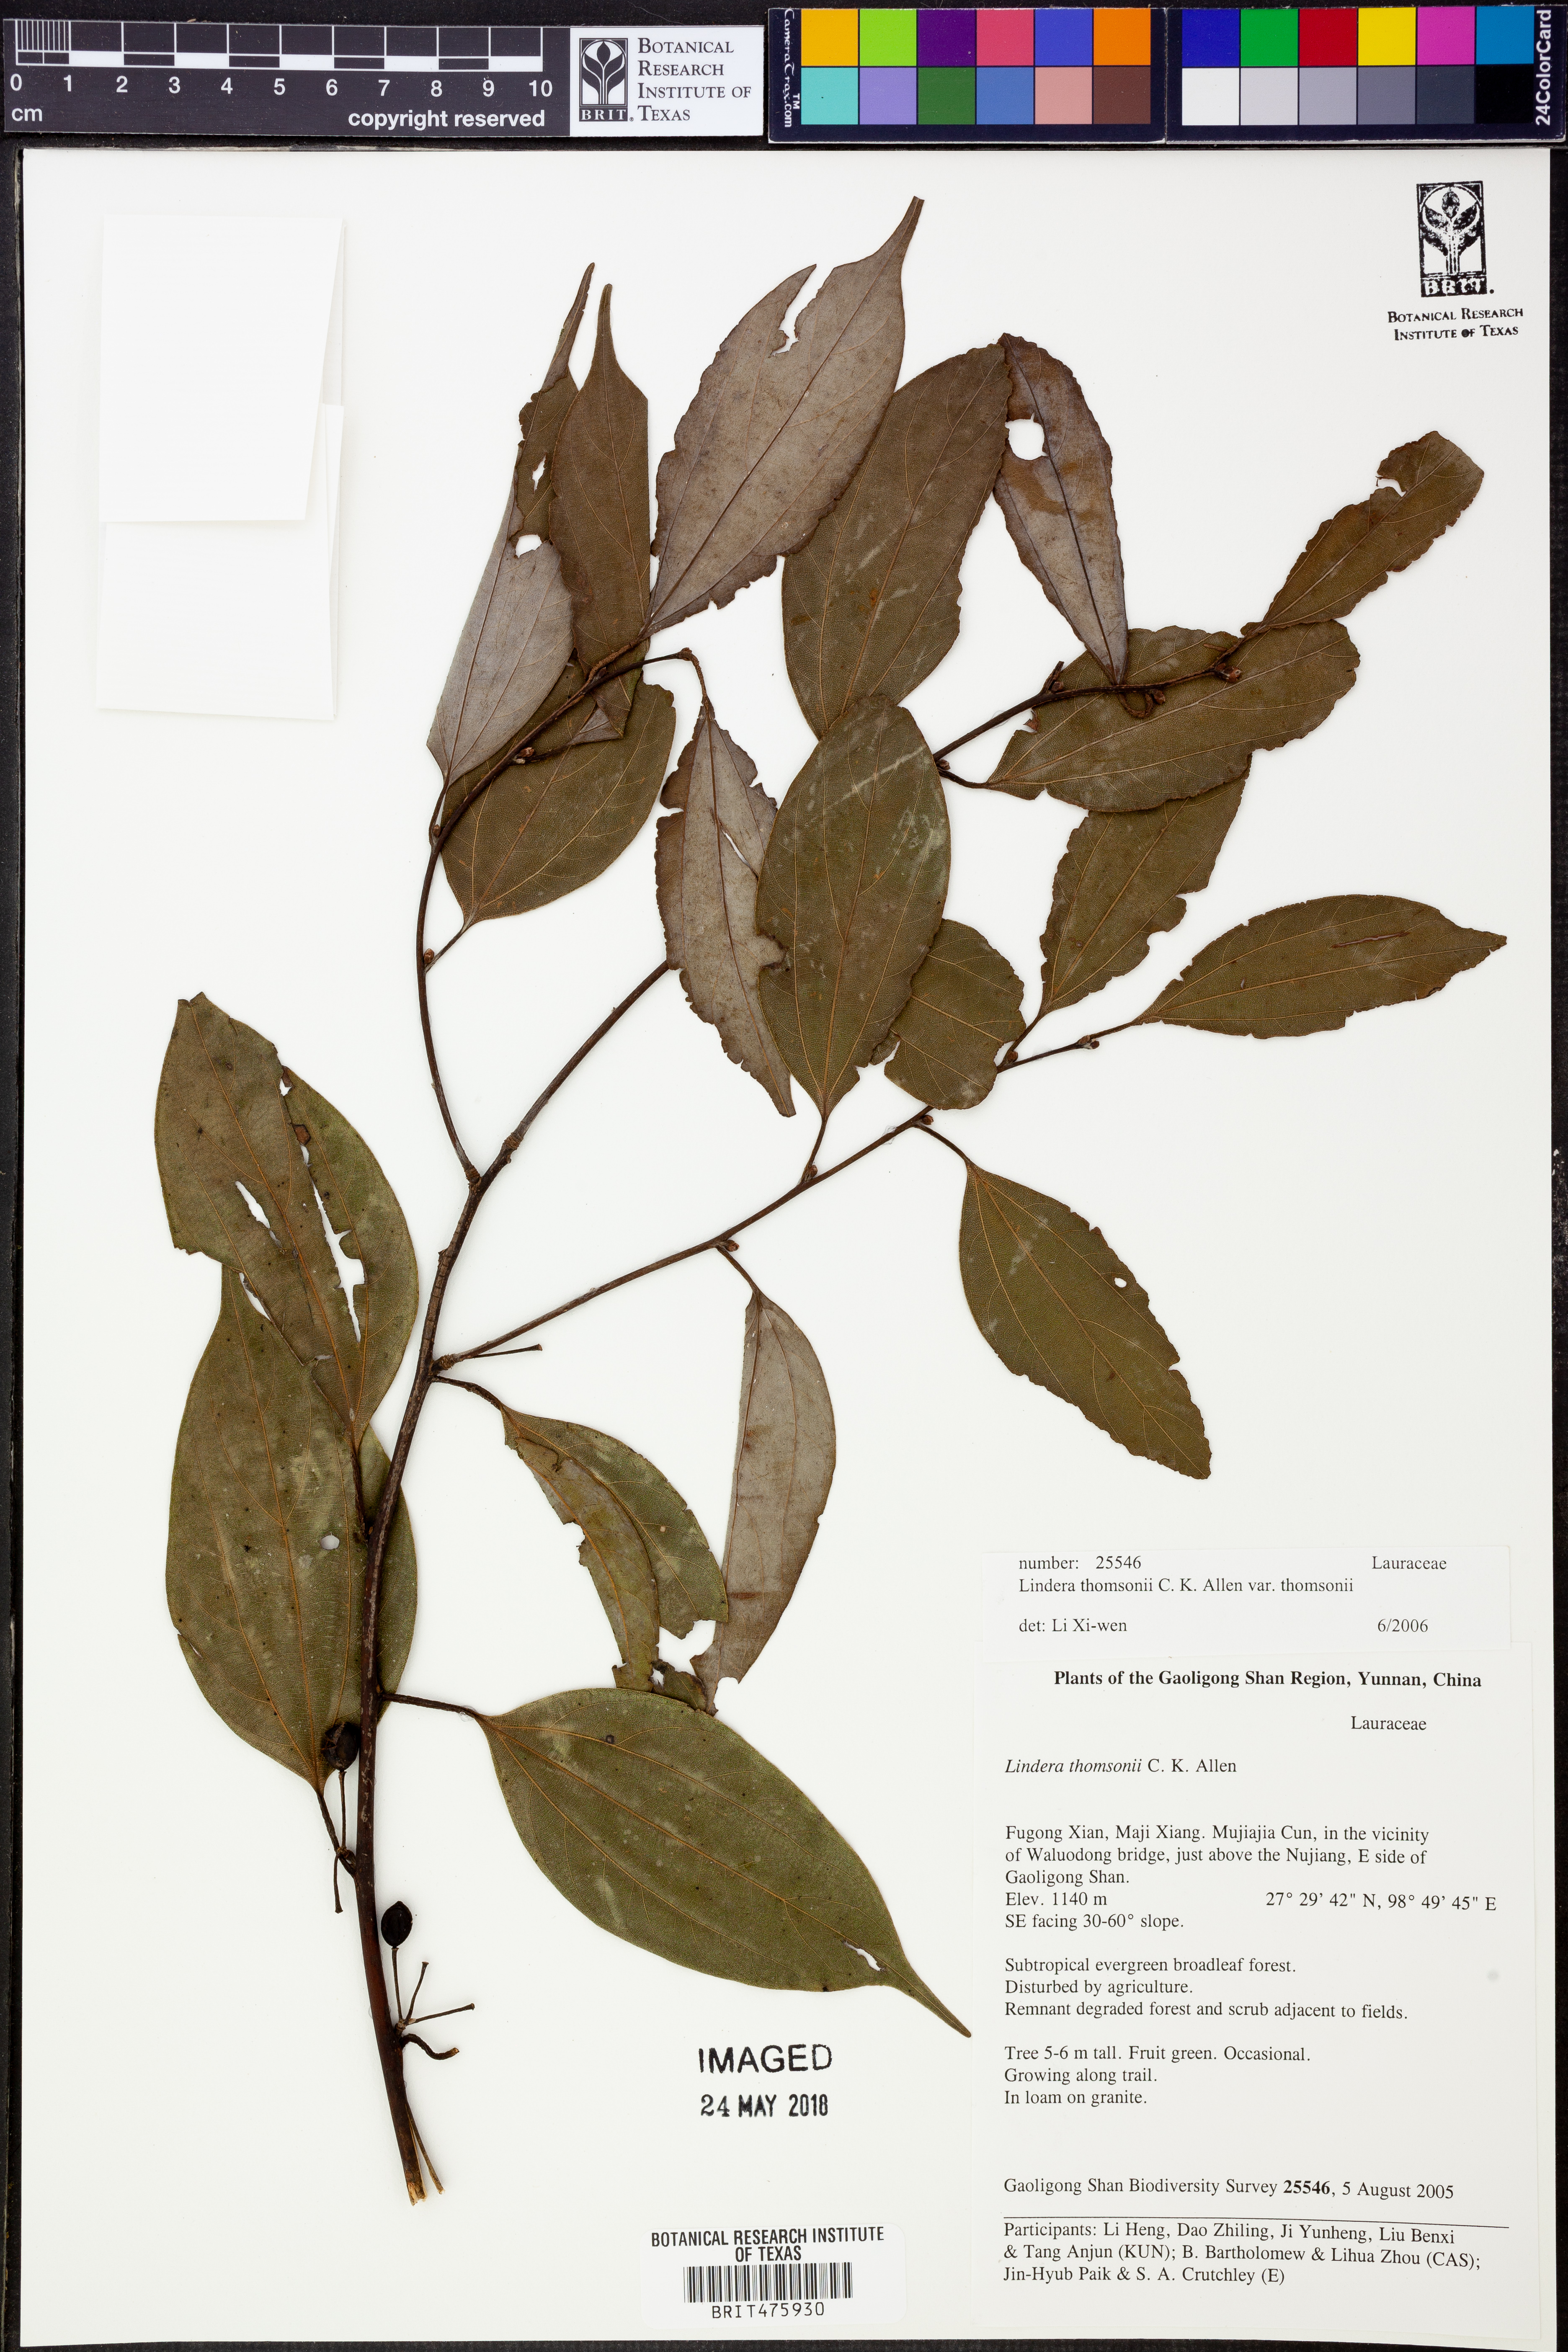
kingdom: Plantae
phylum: Tracheophyta
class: Magnoliopsida
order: Laurales
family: Lauraceae
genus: Lindera
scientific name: Lindera thomsonii
